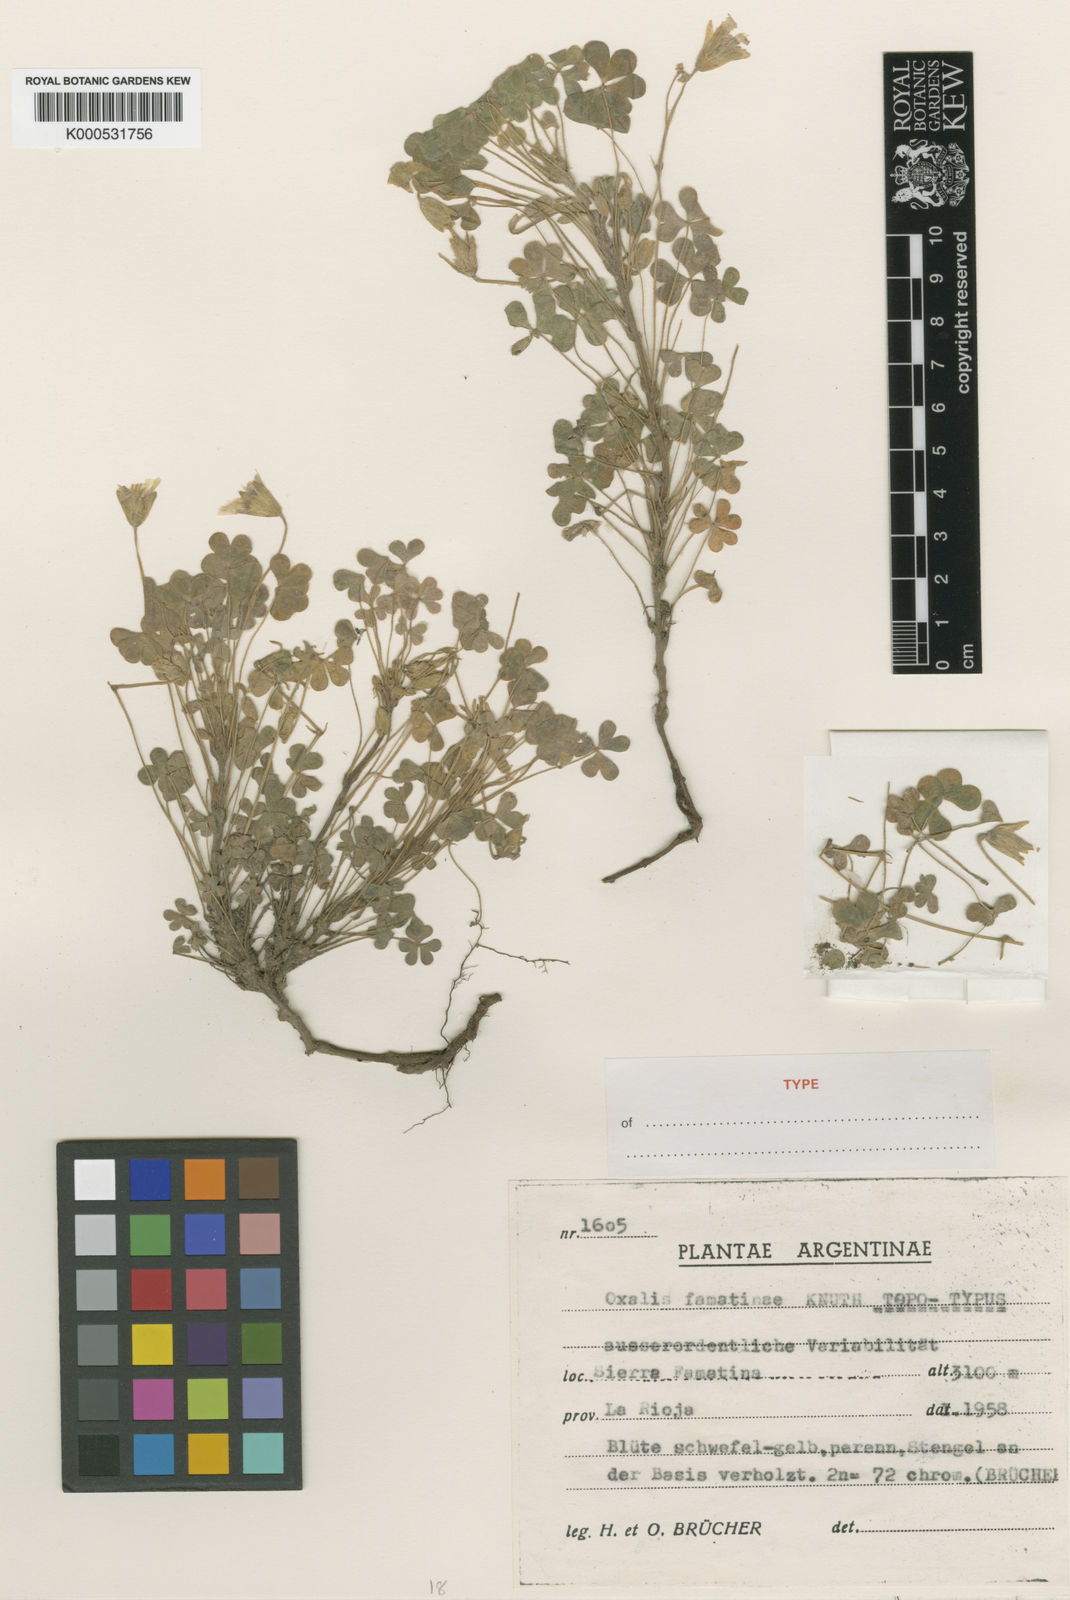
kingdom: Plantae
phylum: Tracheophyta
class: Magnoliopsida
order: Oxalidales
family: Oxalidaceae
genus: Oxalis
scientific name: Oxalis famatinae
